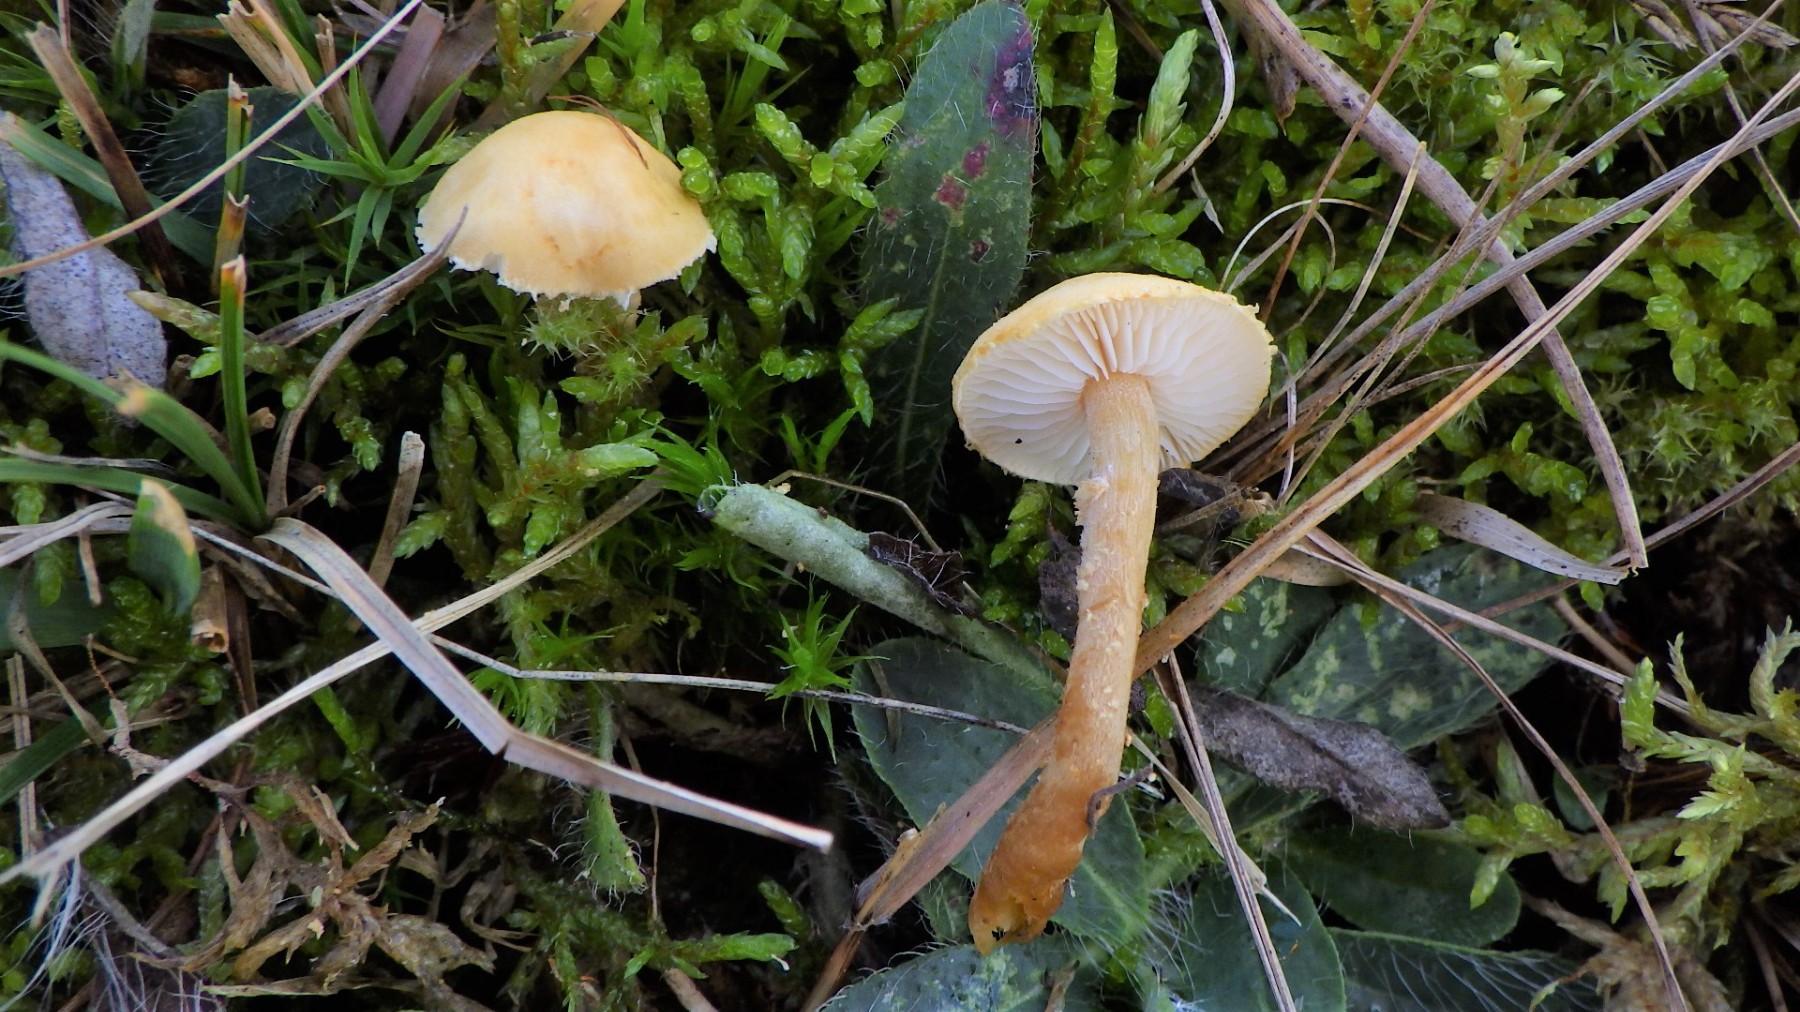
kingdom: Fungi
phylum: Basidiomycota
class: Agaricomycetes
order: Agaricales
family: Tricholomataceae
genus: Cystoderma
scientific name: Cystoderma amianthinum
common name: okkergul grynhat
